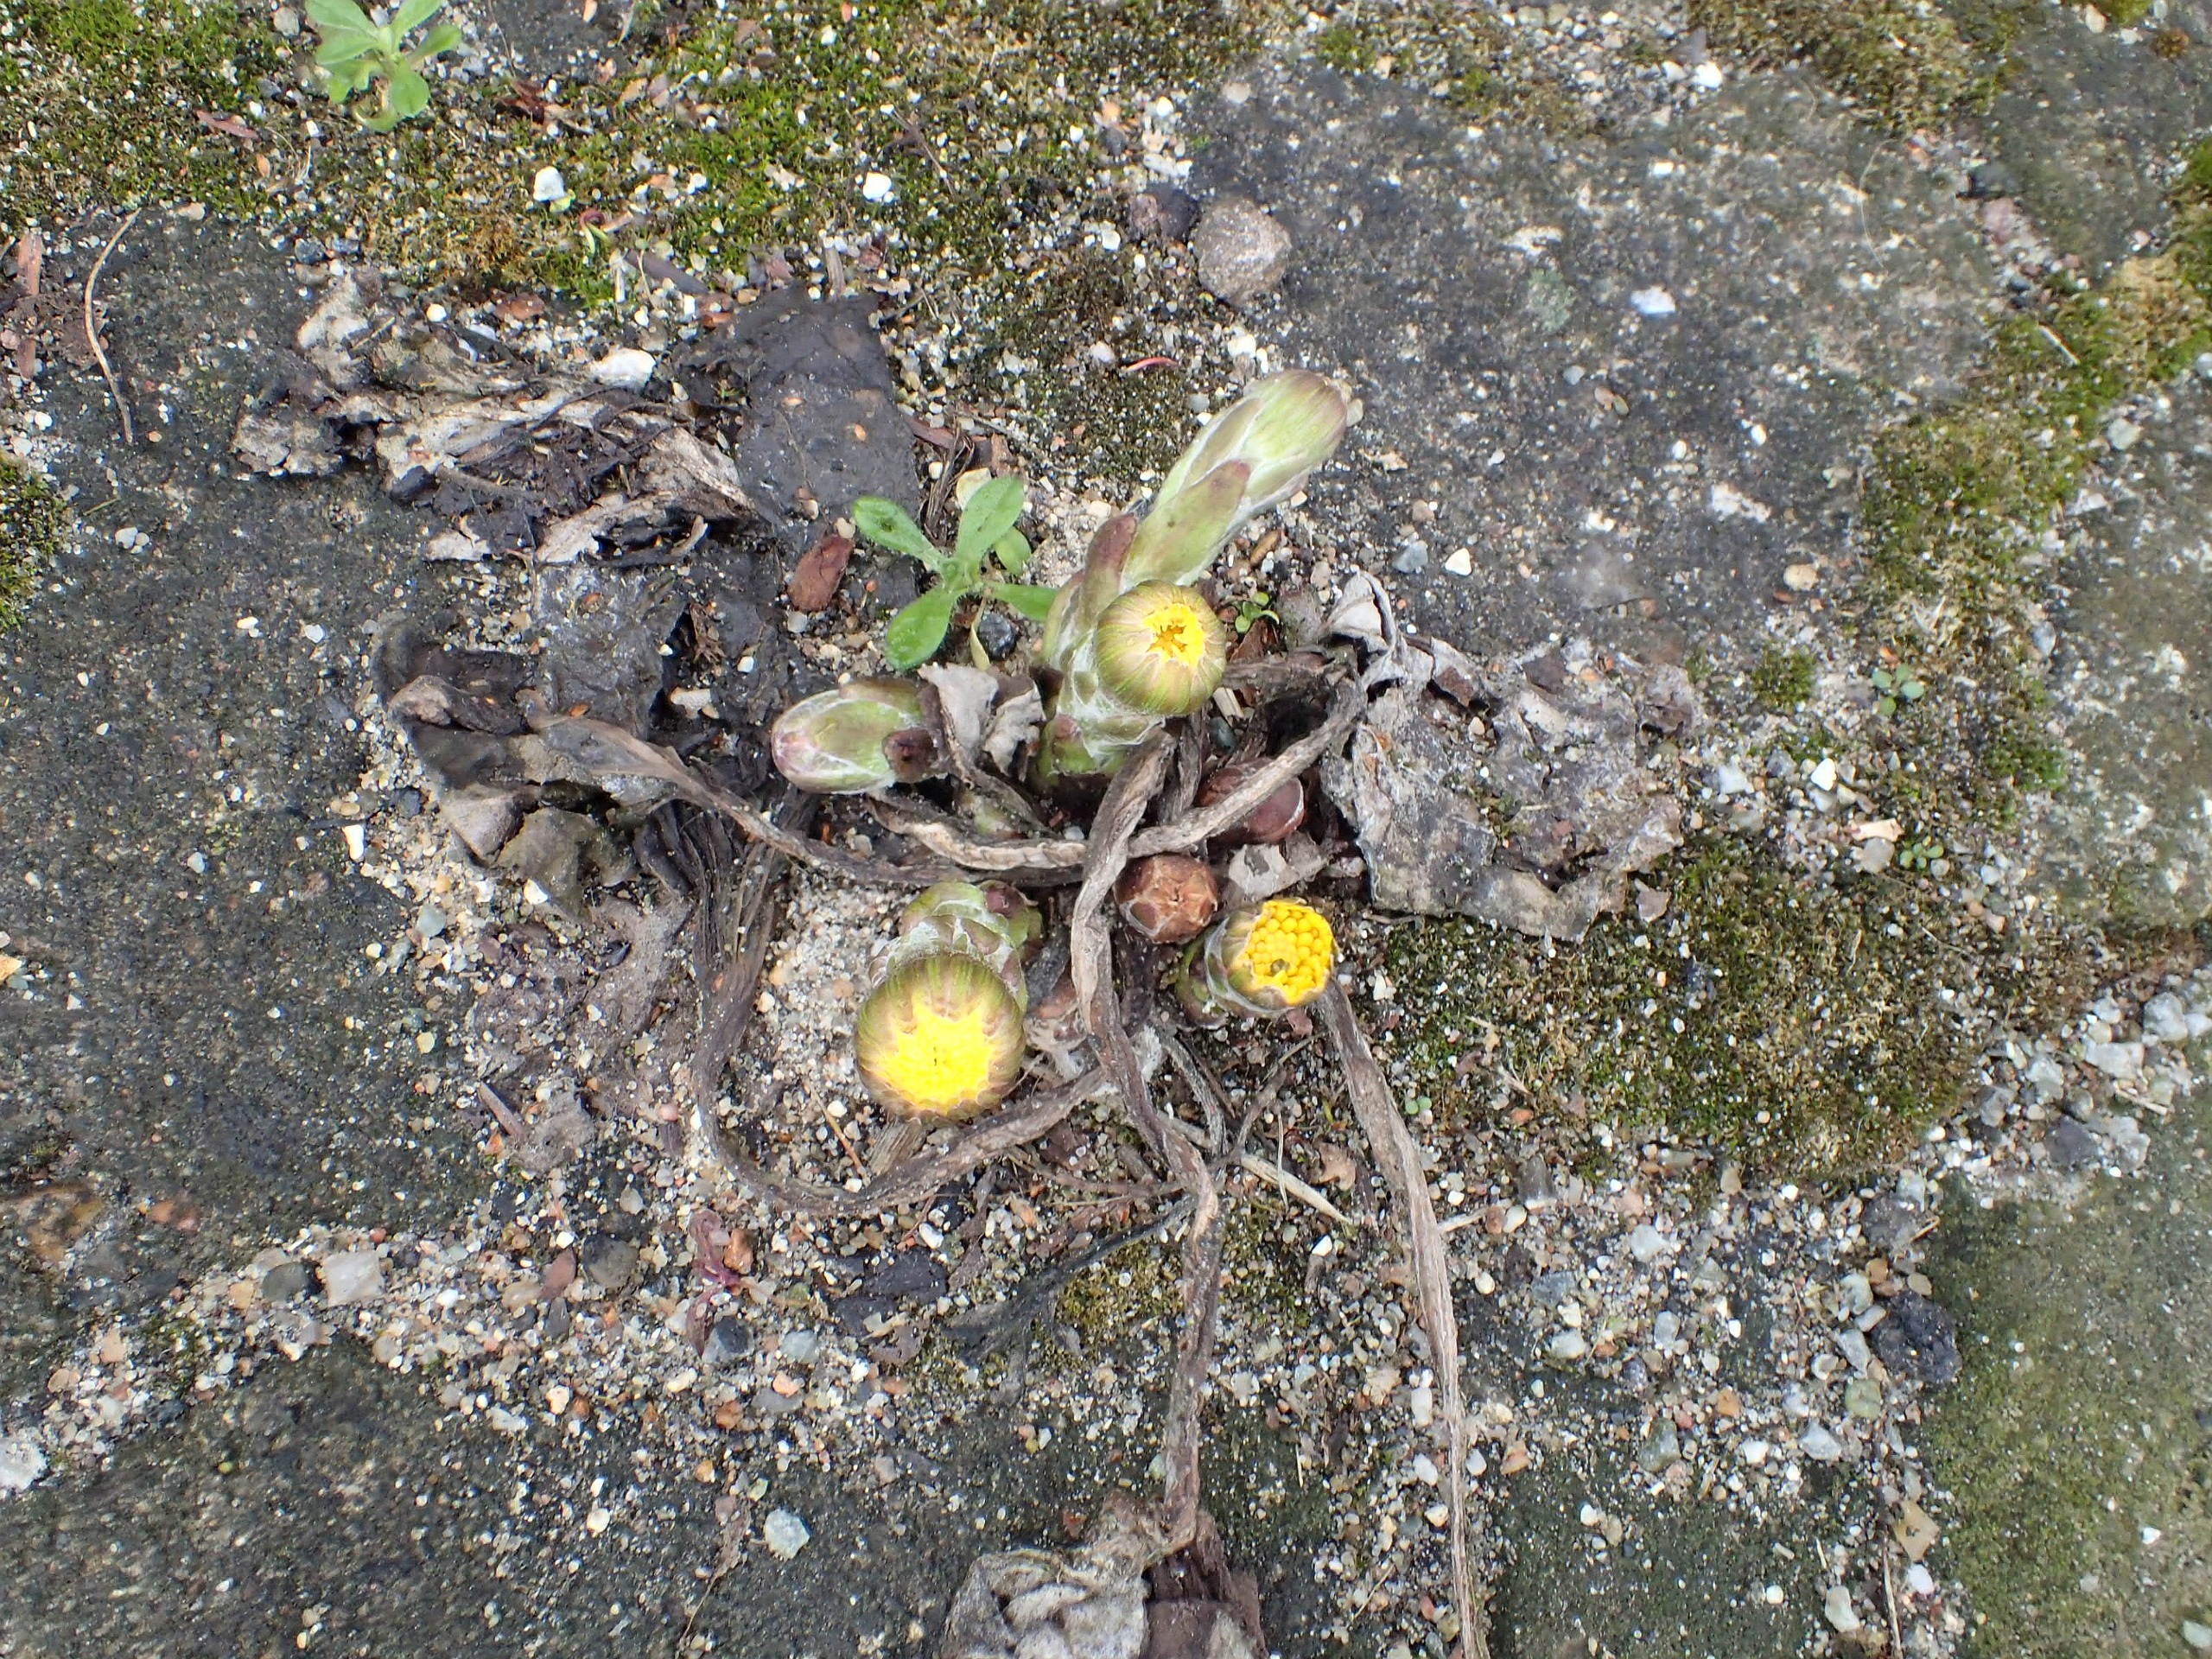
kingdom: Plantae
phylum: Tracheophyta
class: Magnoliopsida
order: Asterales
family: Asteraceae
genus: Tussilago
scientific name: Tussilago farfara
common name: Følfod
